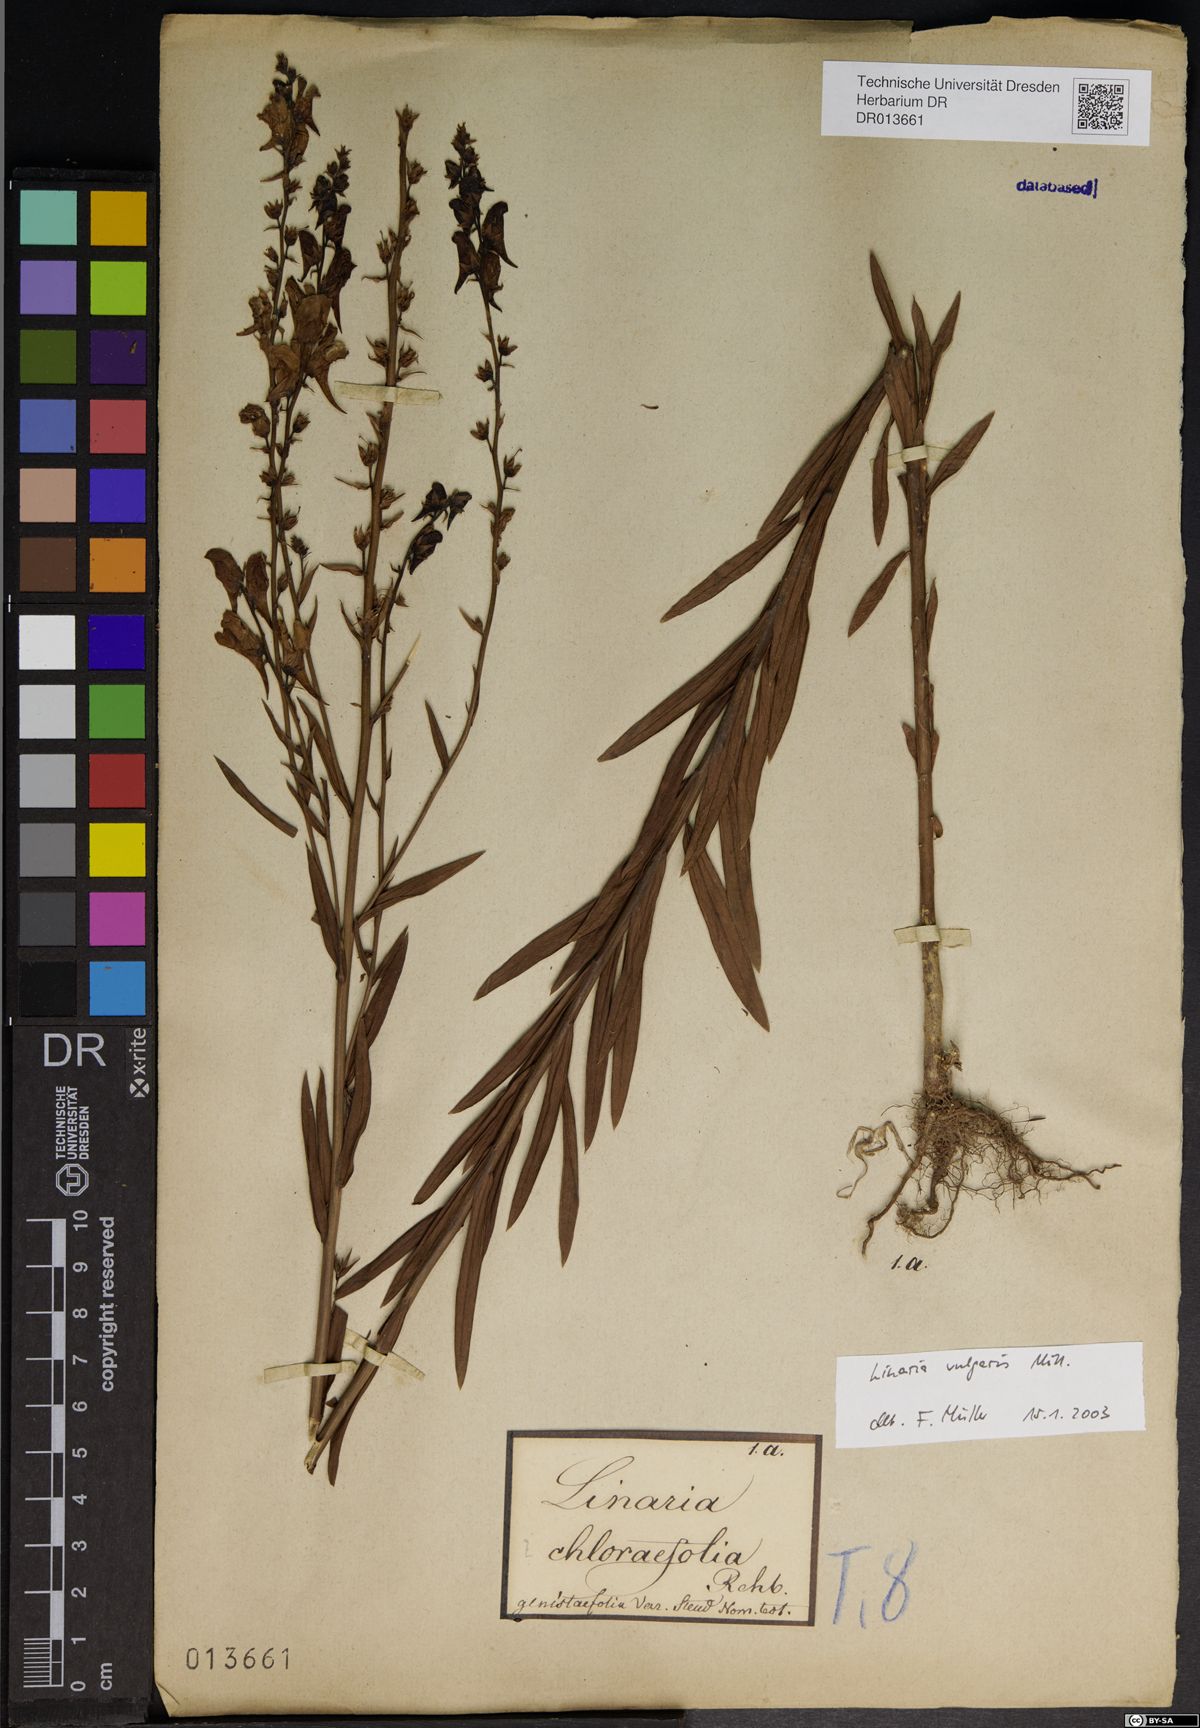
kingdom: Plantae
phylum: Tracheophyta
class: Magnoliopsida
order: Lamiales
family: Plantaginaceae
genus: Linaria
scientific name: Linaria vulgaris
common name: Butter and eggs
